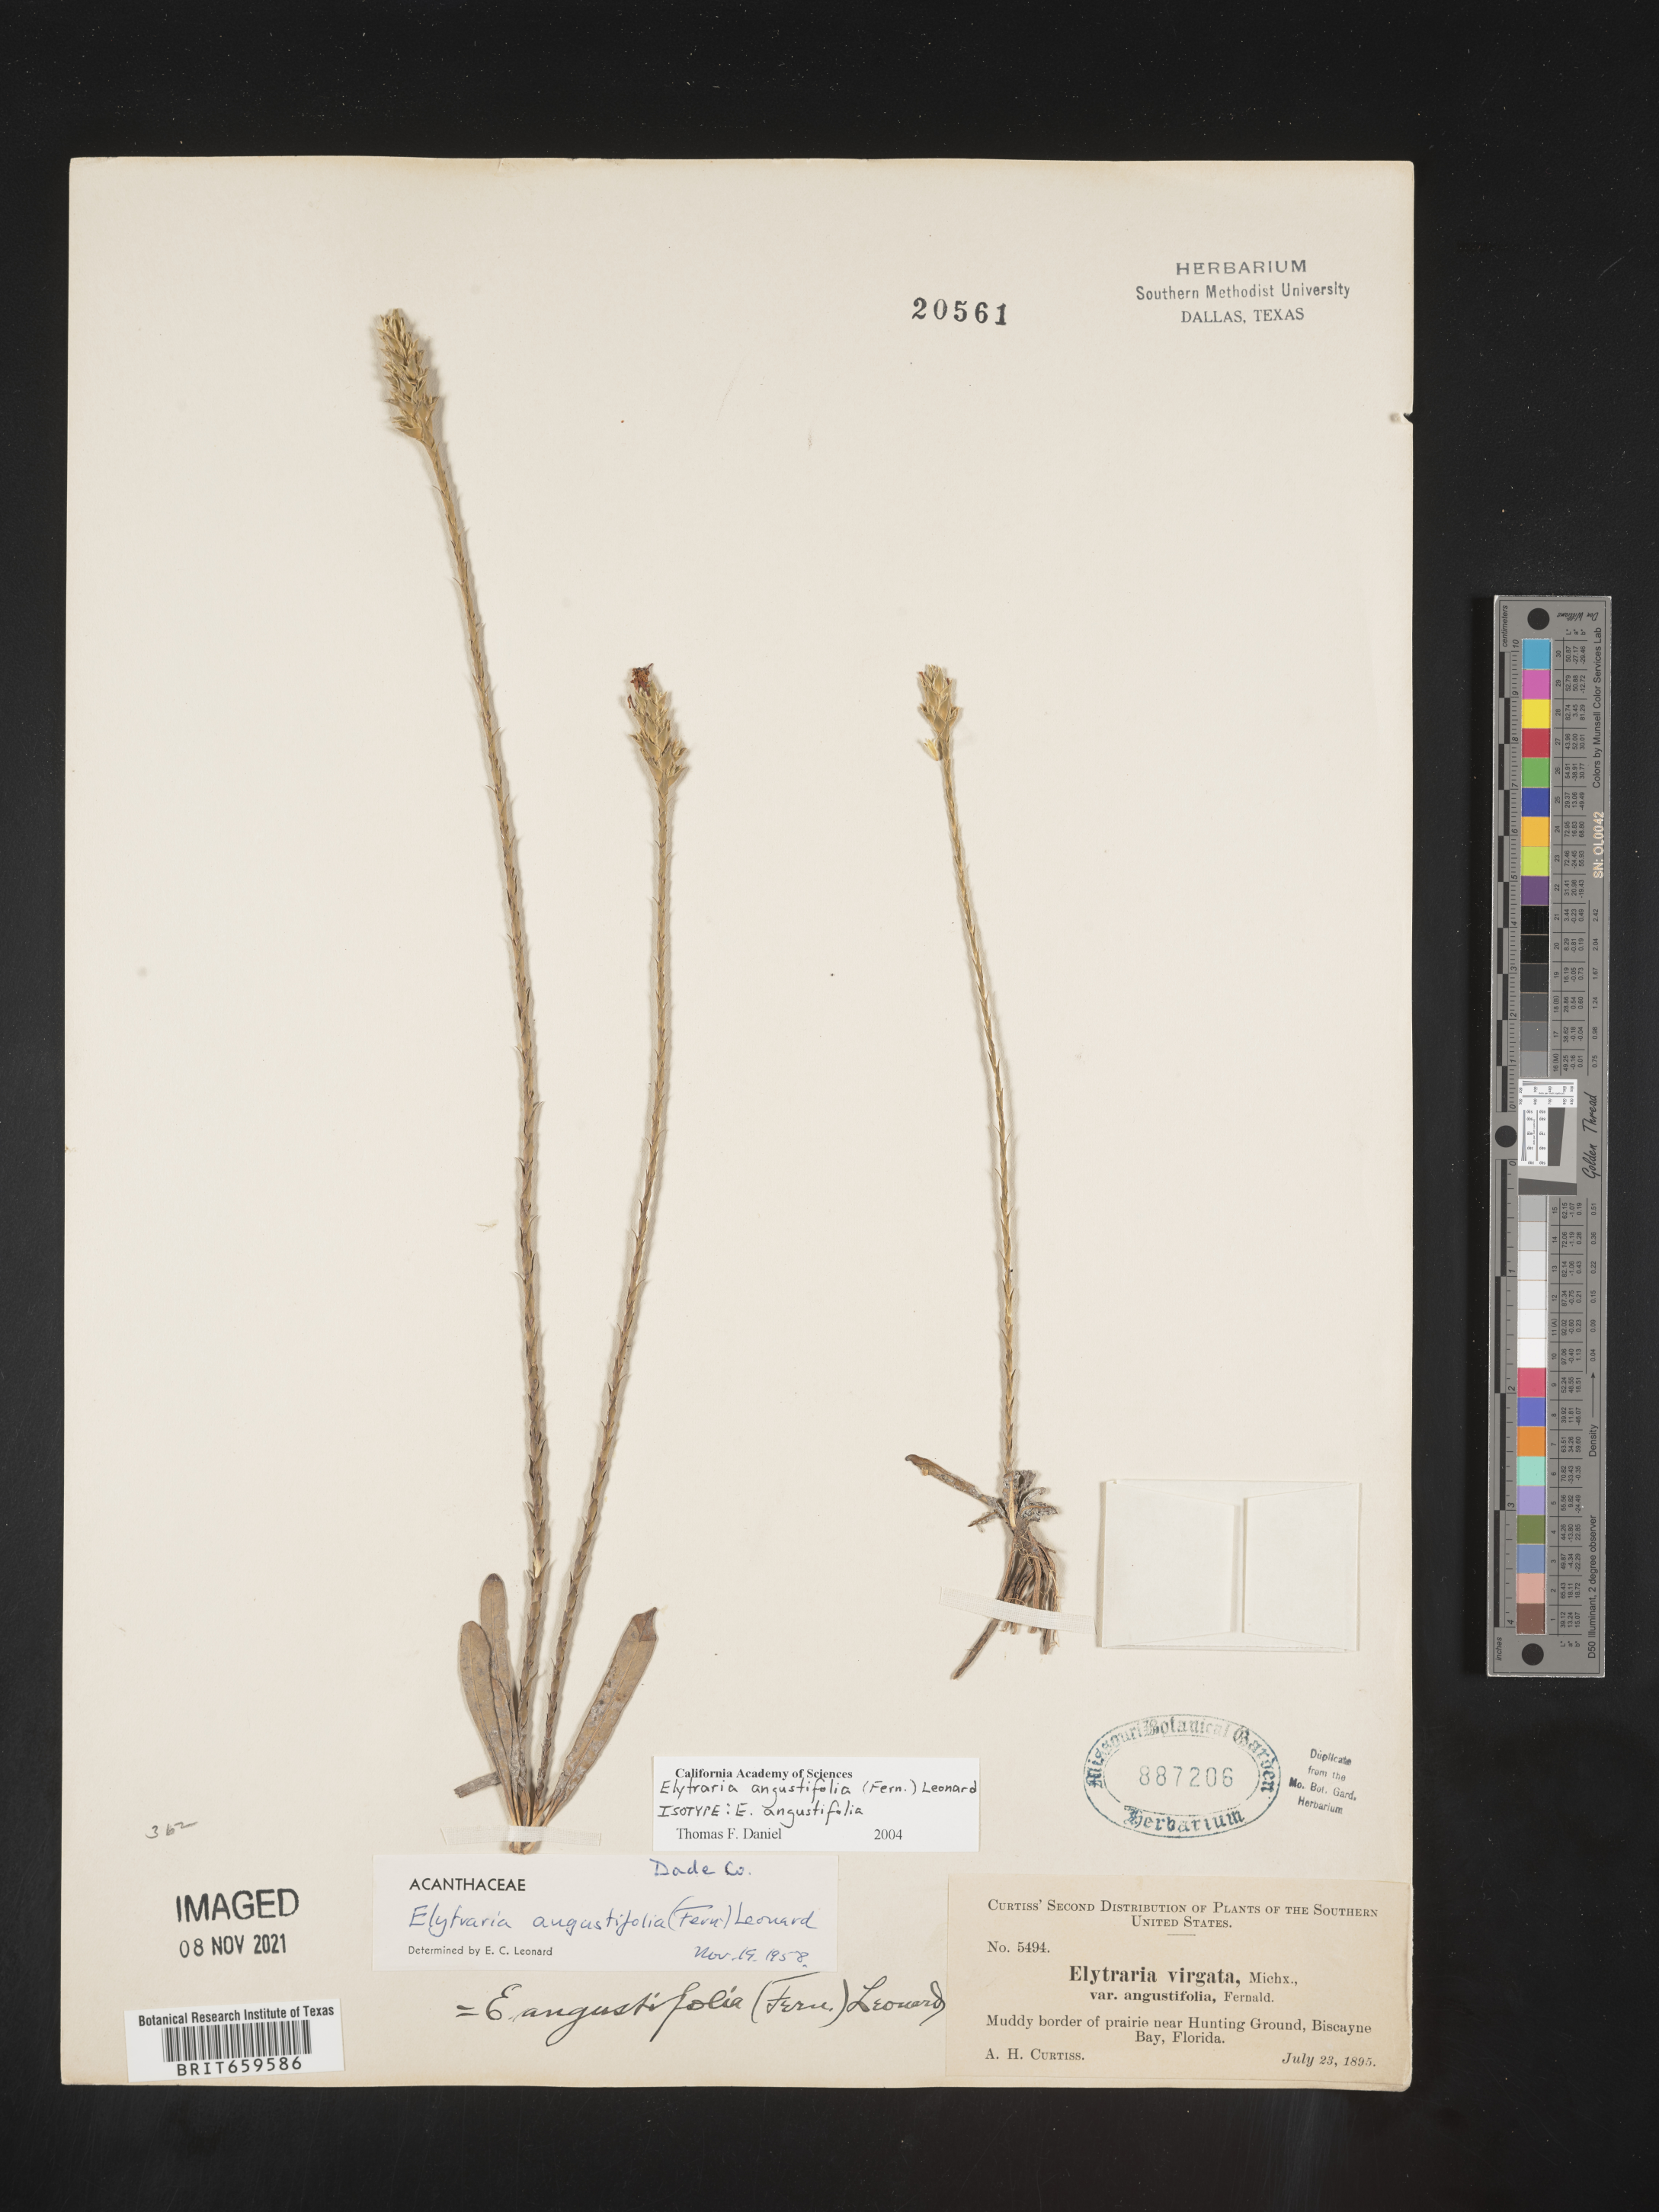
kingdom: Plantae
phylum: Tracheophyta
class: Magnoliopsida
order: Lamiales
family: Acanthaceae
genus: Elytraria
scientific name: Elytraria imbricata
